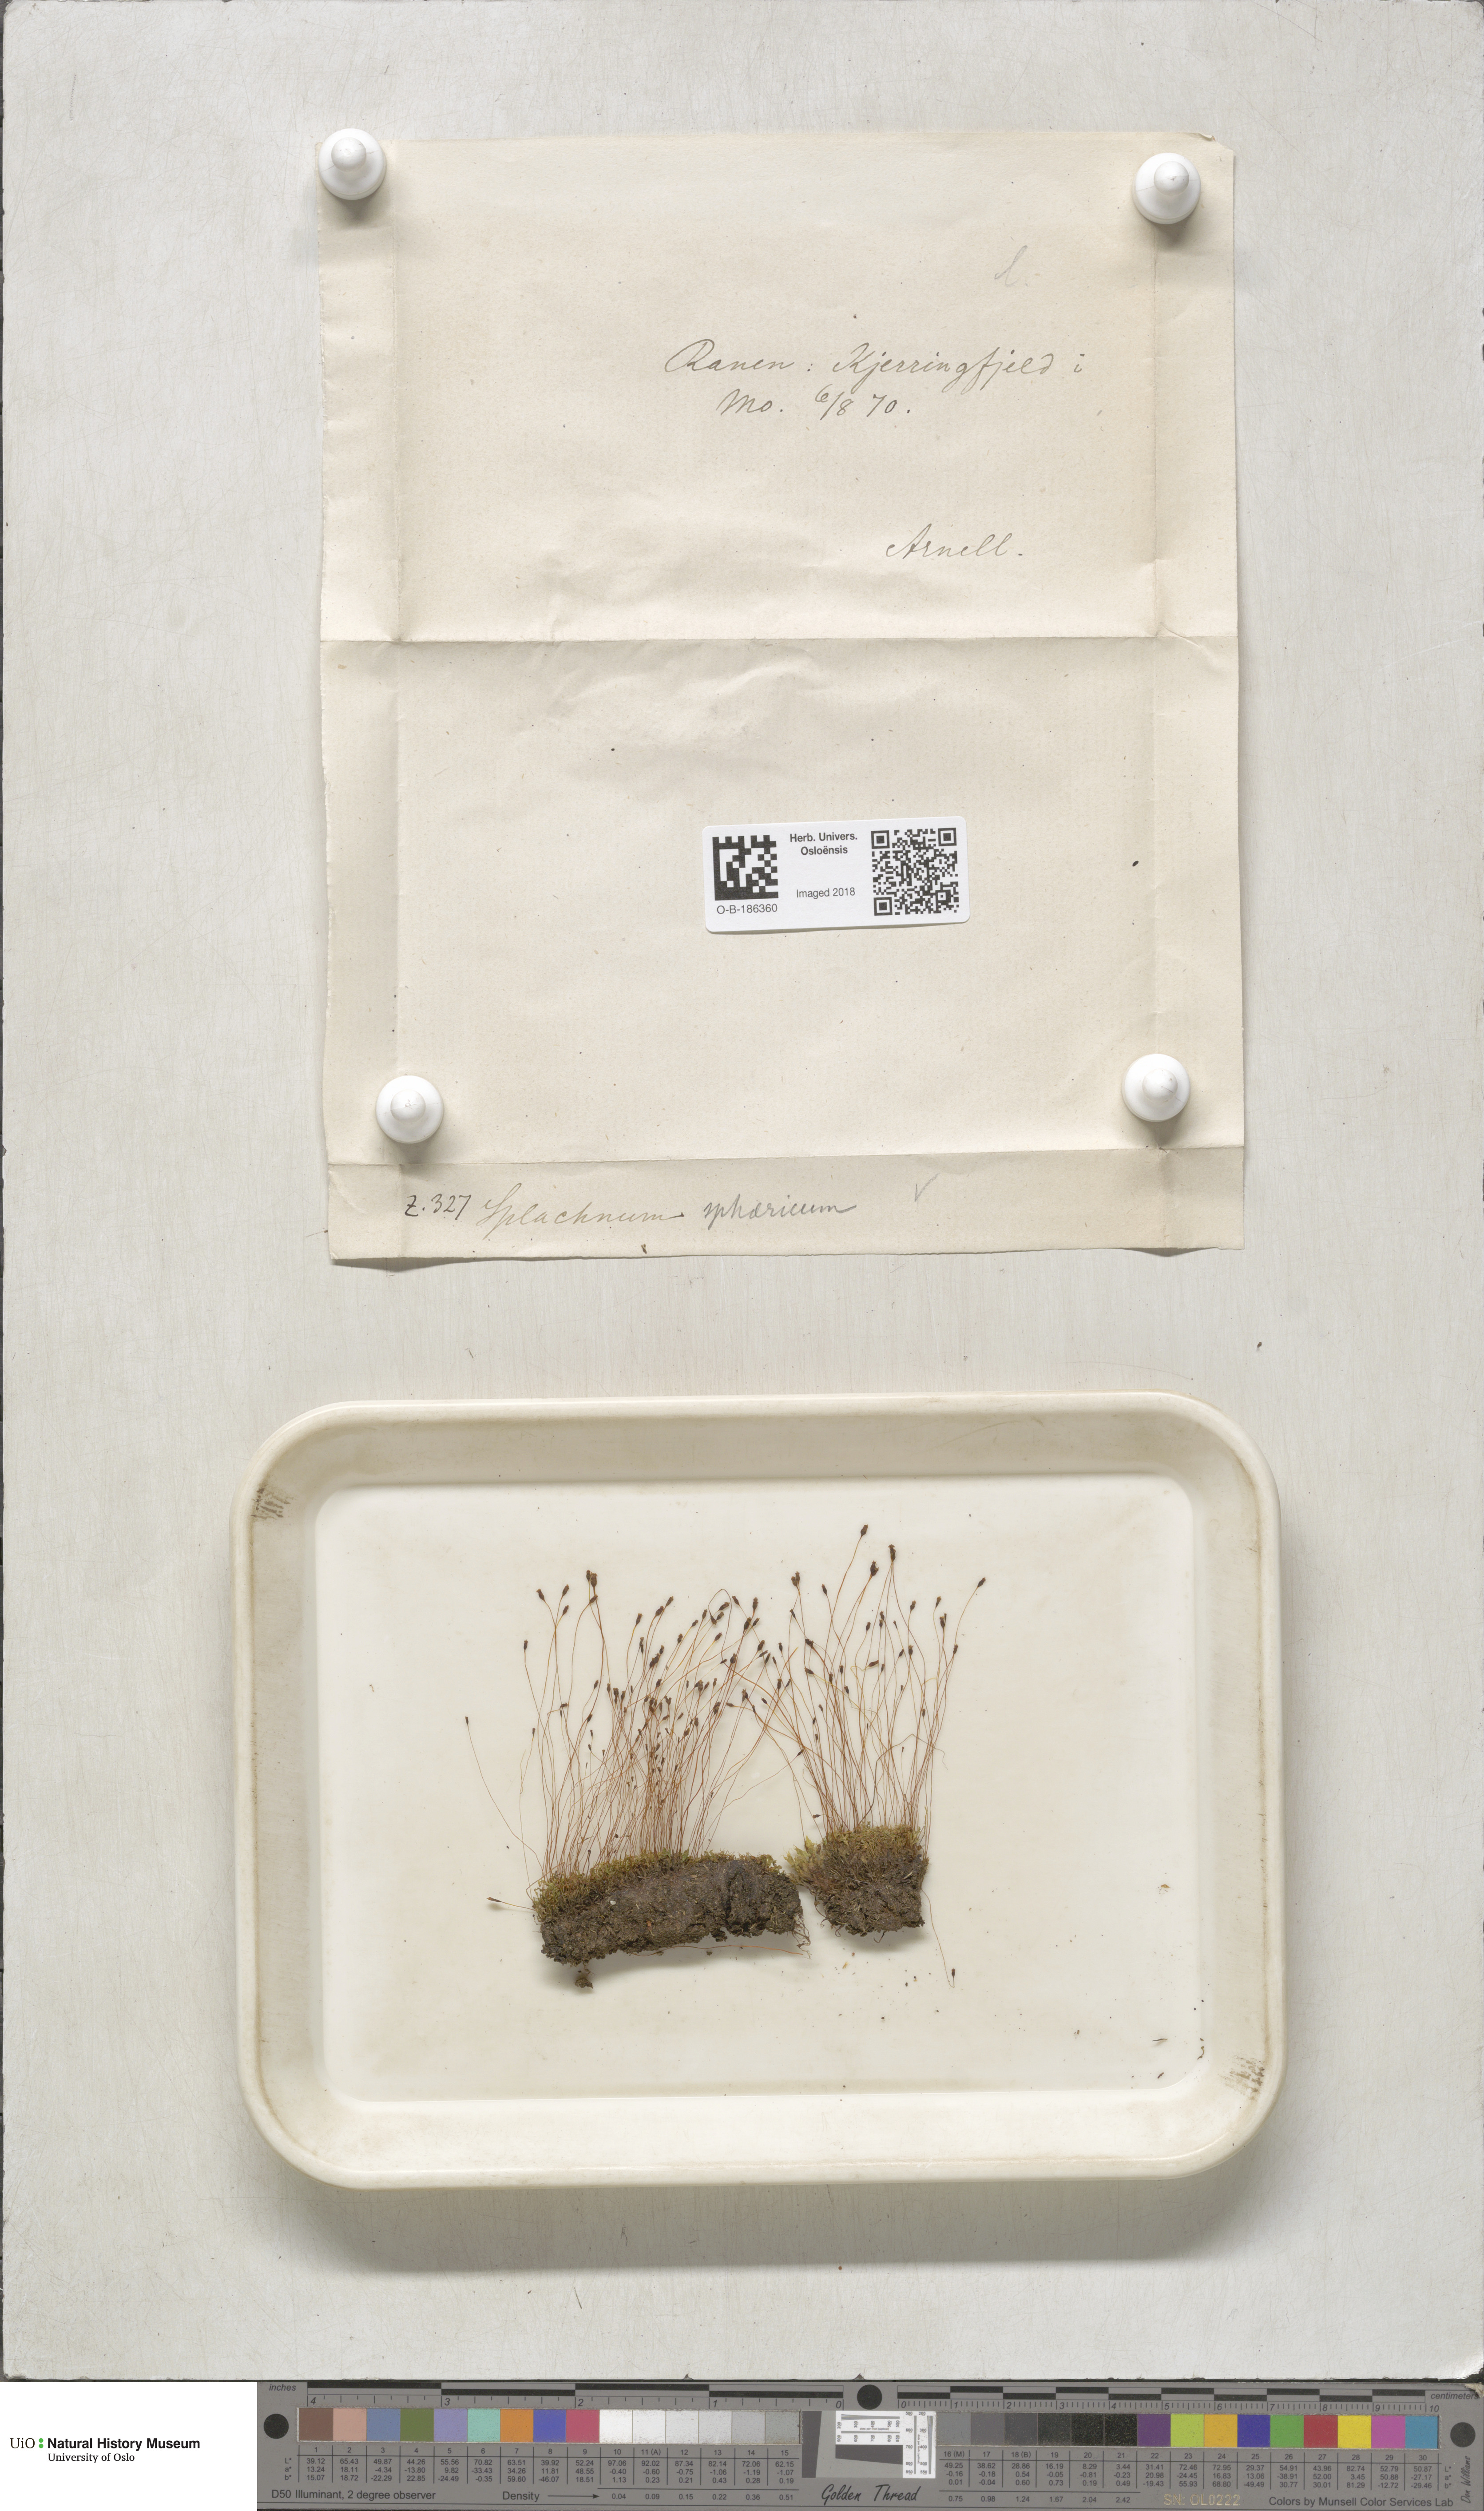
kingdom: Plantae
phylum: Bryophyta
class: Bryopsida
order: Splachnales
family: Splachnaceae
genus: Splachnum
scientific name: Splachnum sphaericum
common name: Round-fruited dung moss
